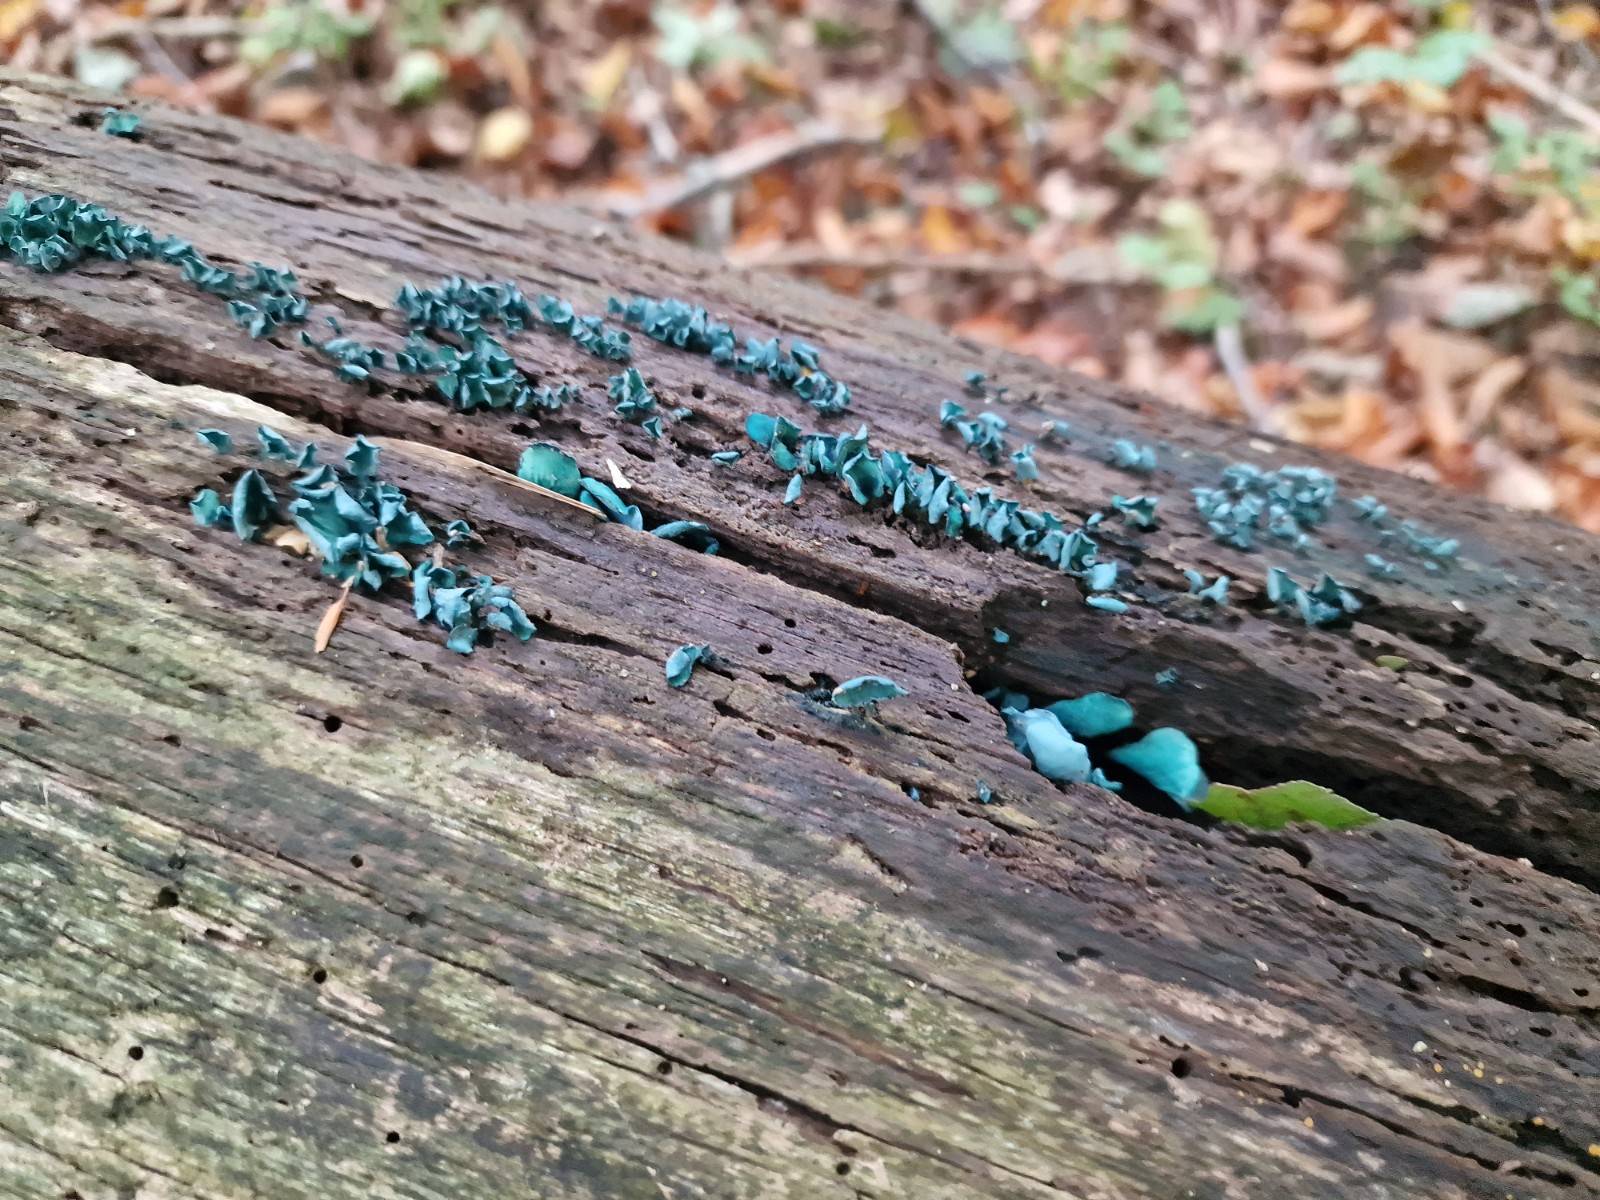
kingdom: Fungi
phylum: Ascomycota
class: Leotiomycetes
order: Helotiales
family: Chlorociboriaceae
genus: Chlorociboria
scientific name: Chlorociboria aeruginascens
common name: almindelig grønskive
